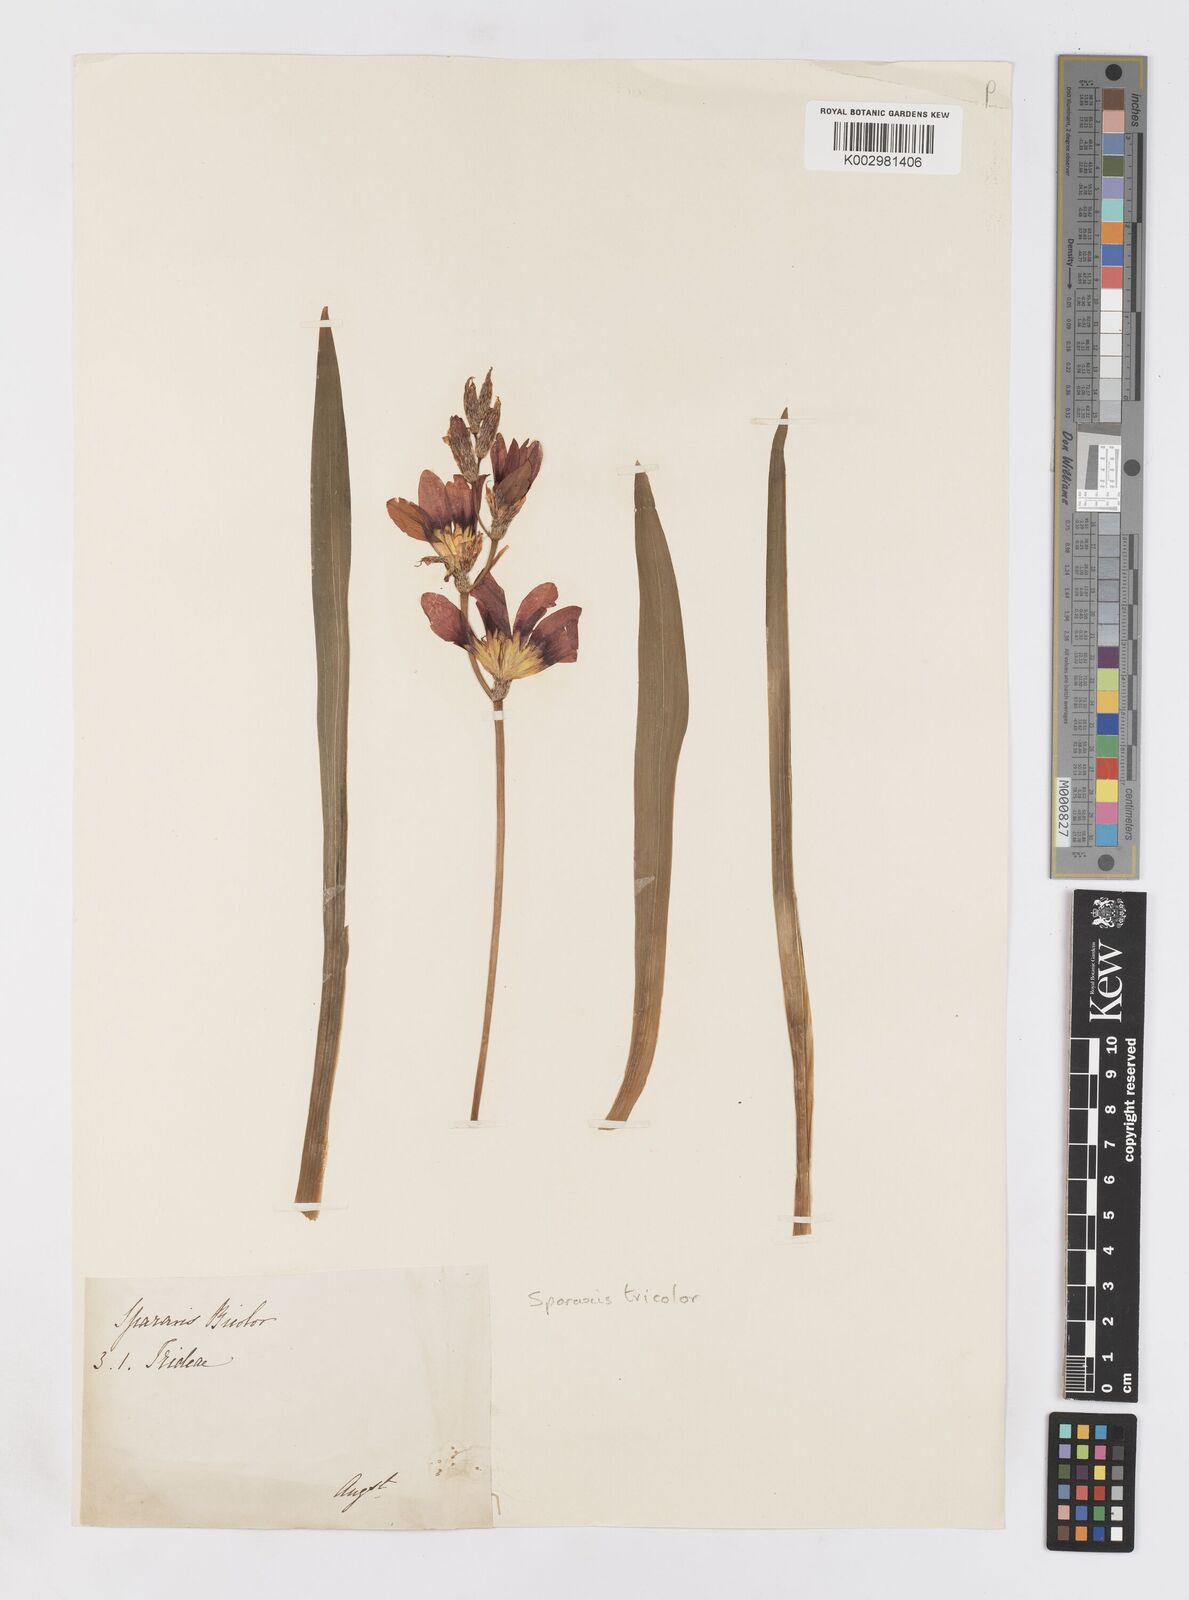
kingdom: Plantae
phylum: Tracheophyta
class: Liliopsida
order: Asparagales
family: Iridaceae
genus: Sparaxis
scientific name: Sparaxis tricolor
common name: Wandflower
